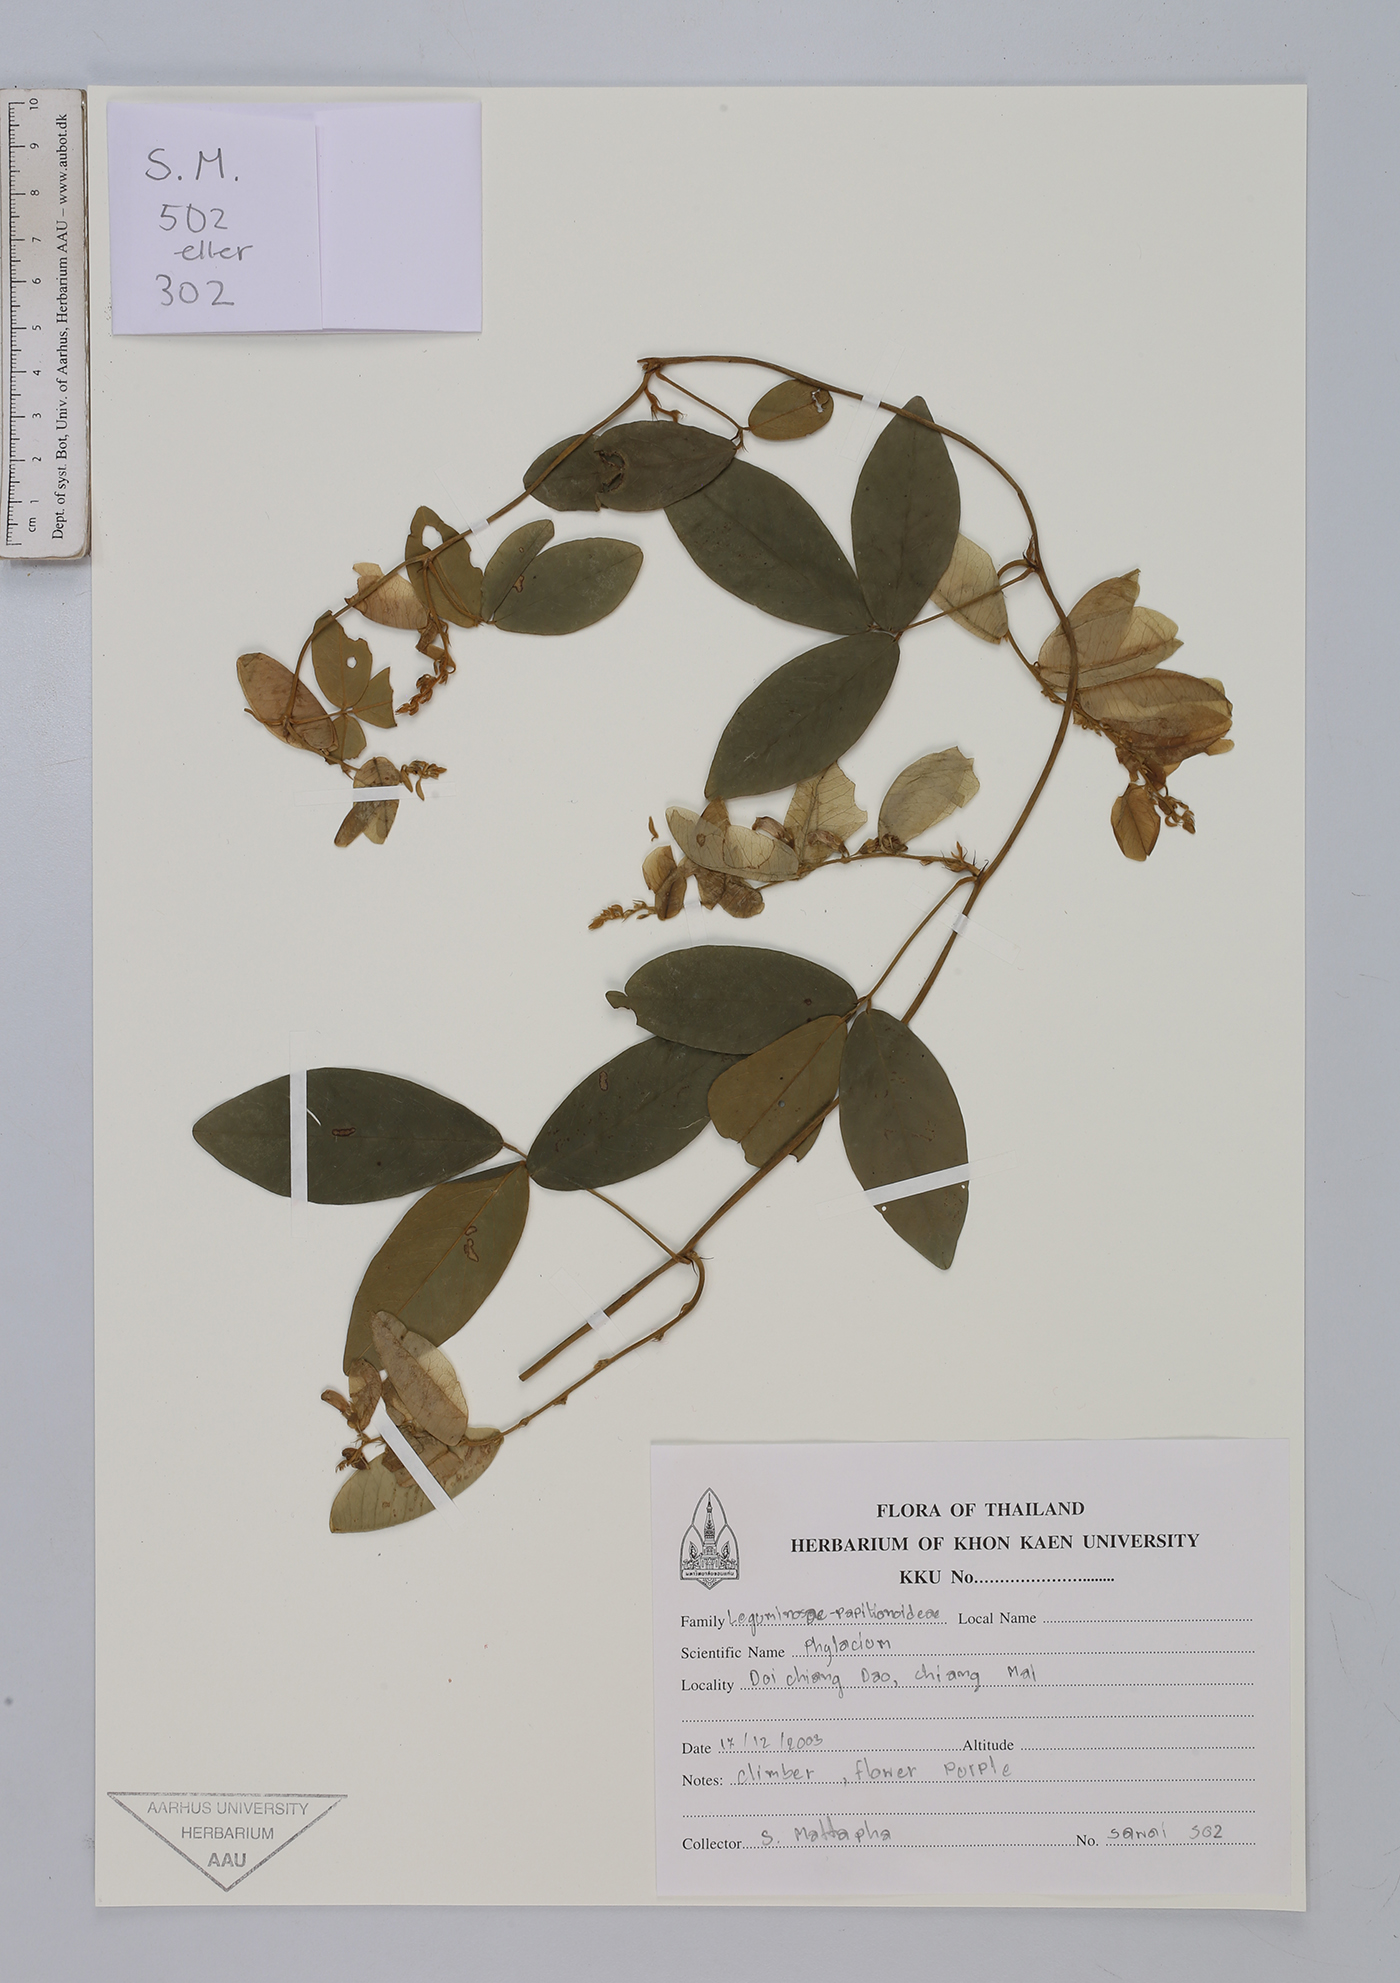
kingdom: Plantae
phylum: Tracheophyta
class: Magnoliopsida
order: Fabales
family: Fabaceae
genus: Phylacium
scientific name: Phylacium
